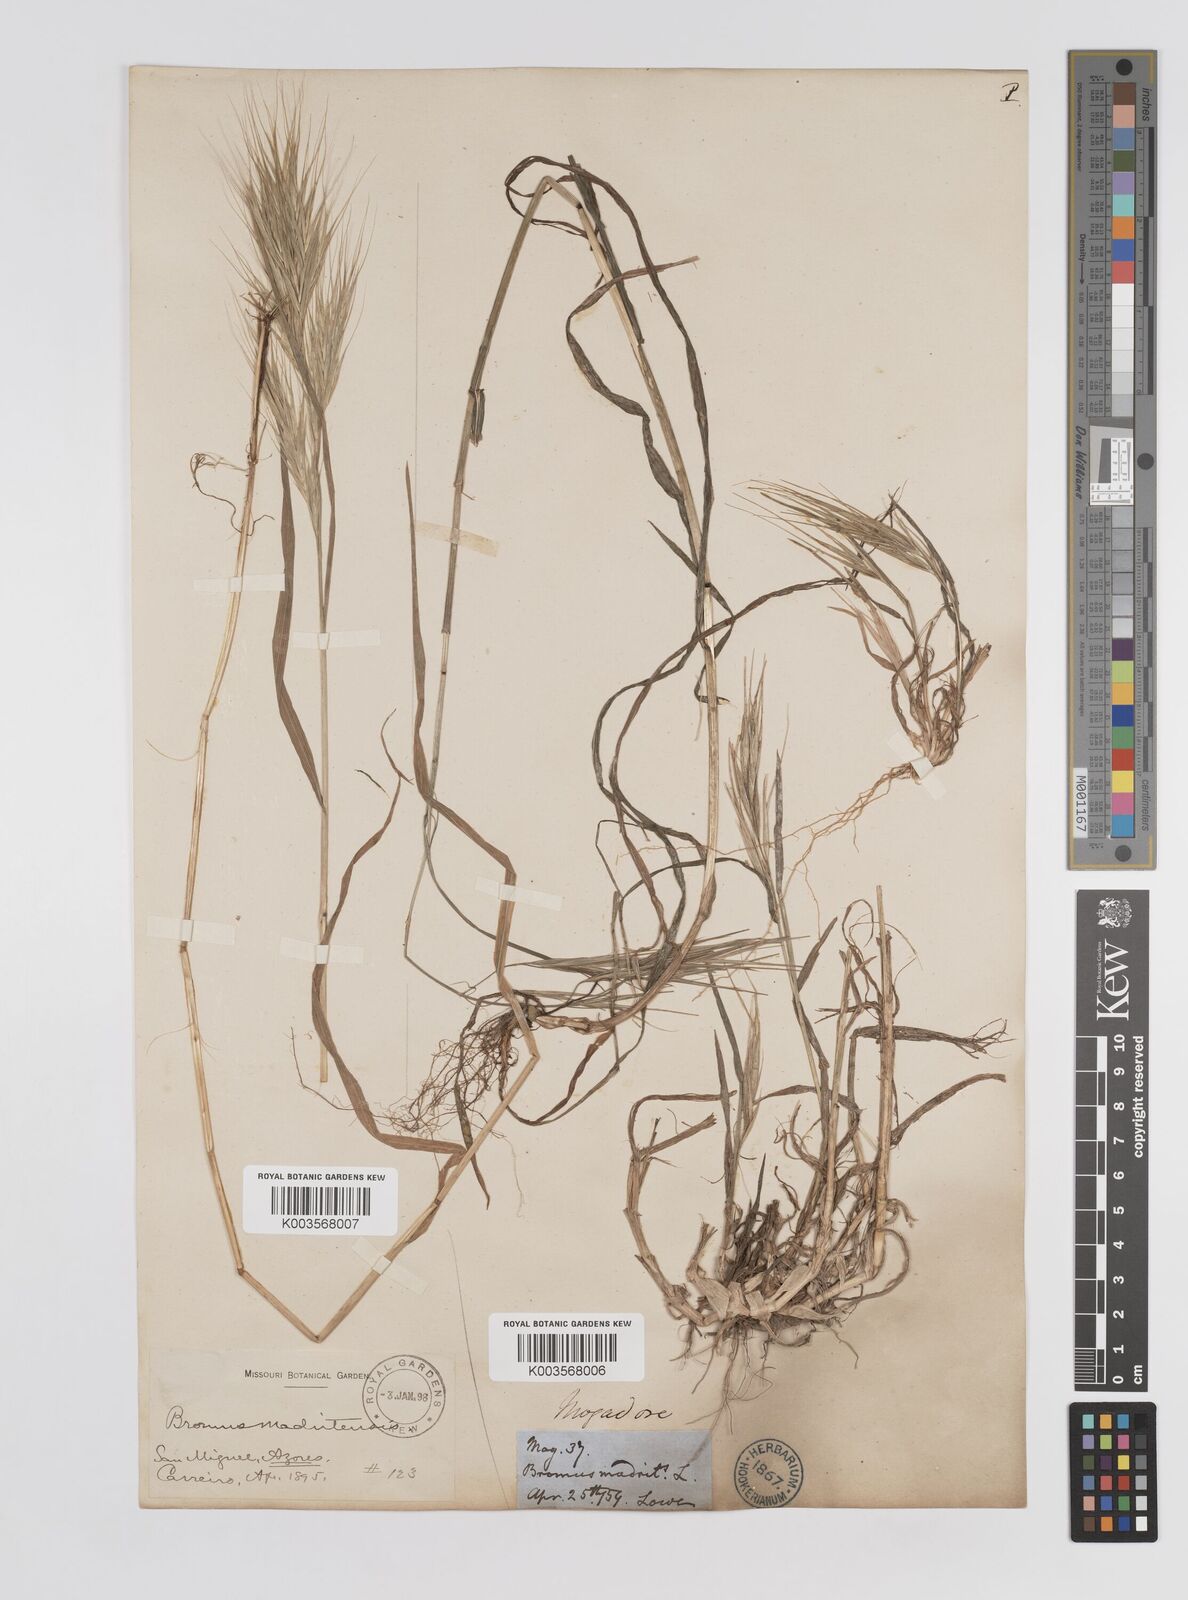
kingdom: Plantae
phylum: Tracheophyta
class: Liliopsida
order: Poales
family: Poaceae
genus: Bromus
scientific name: Bromus
